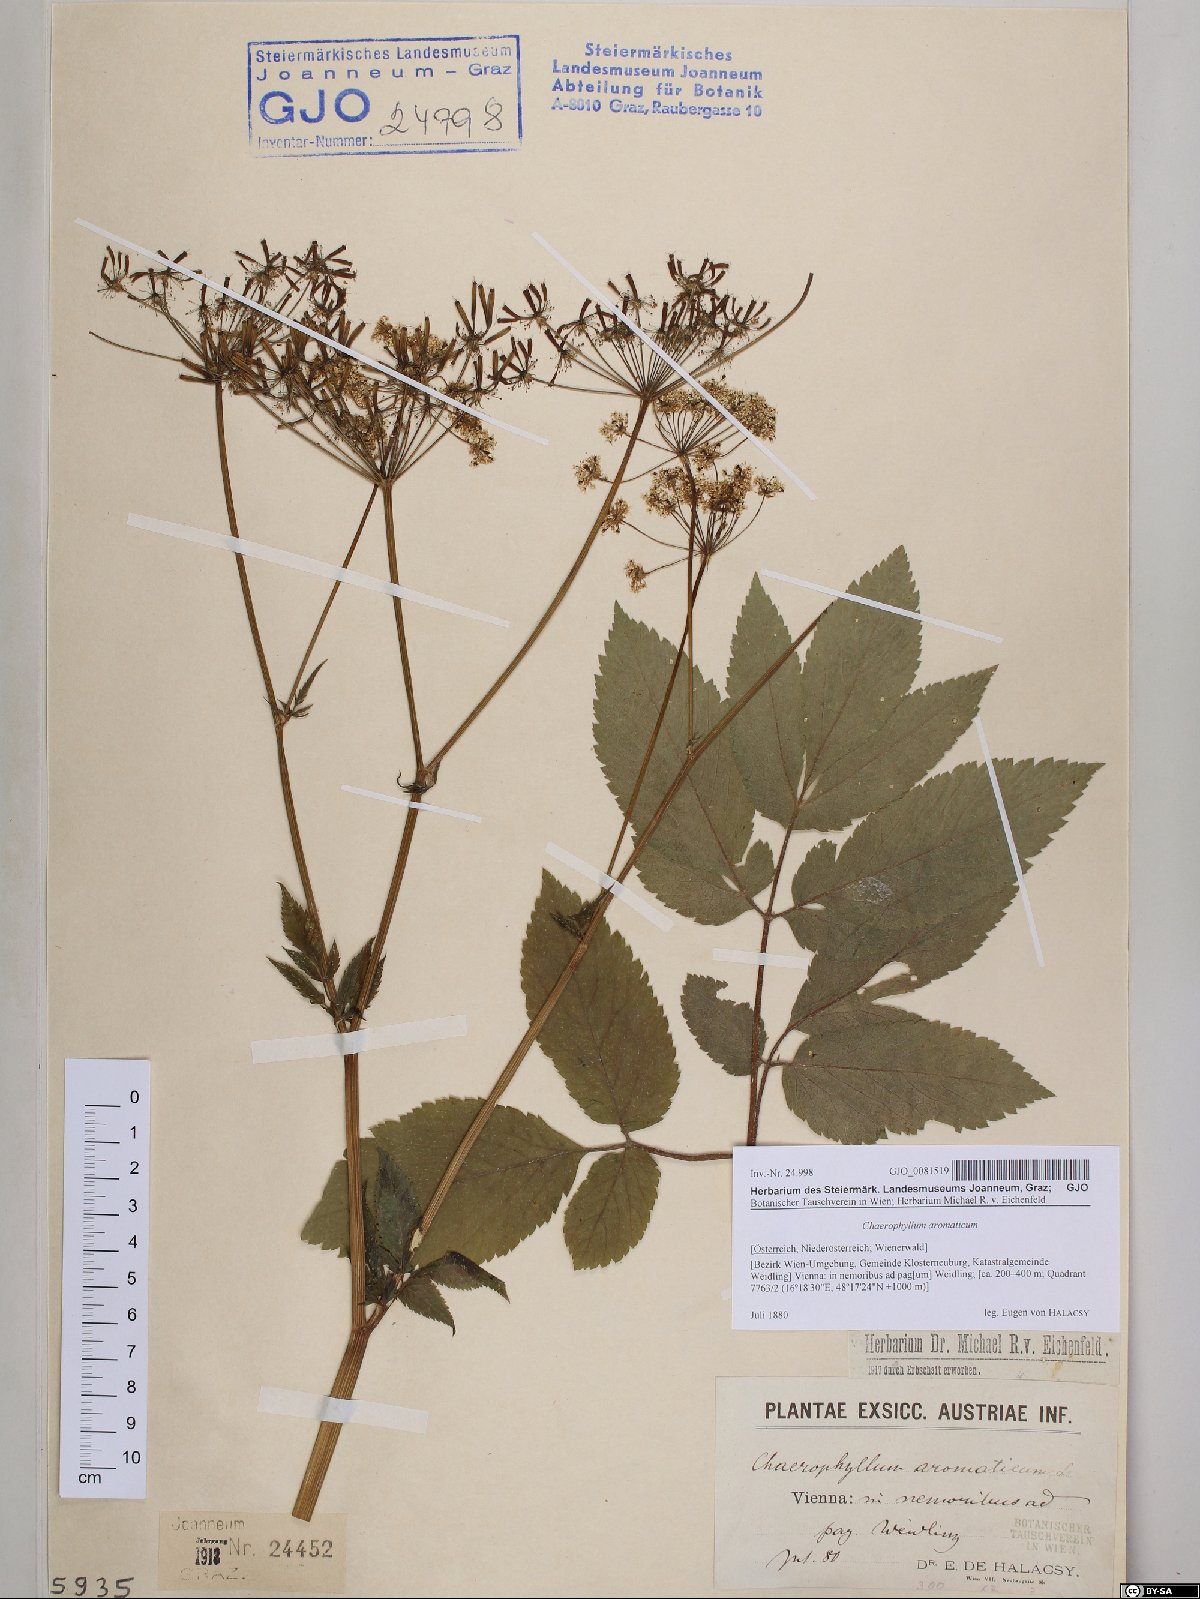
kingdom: Plantae
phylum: Tracheophyta
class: Magnoliopsida
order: Apiales
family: Apiaceae
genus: Chaerophyllum
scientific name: Chaerophyllum aromaticum
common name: Broadleaf chervil
